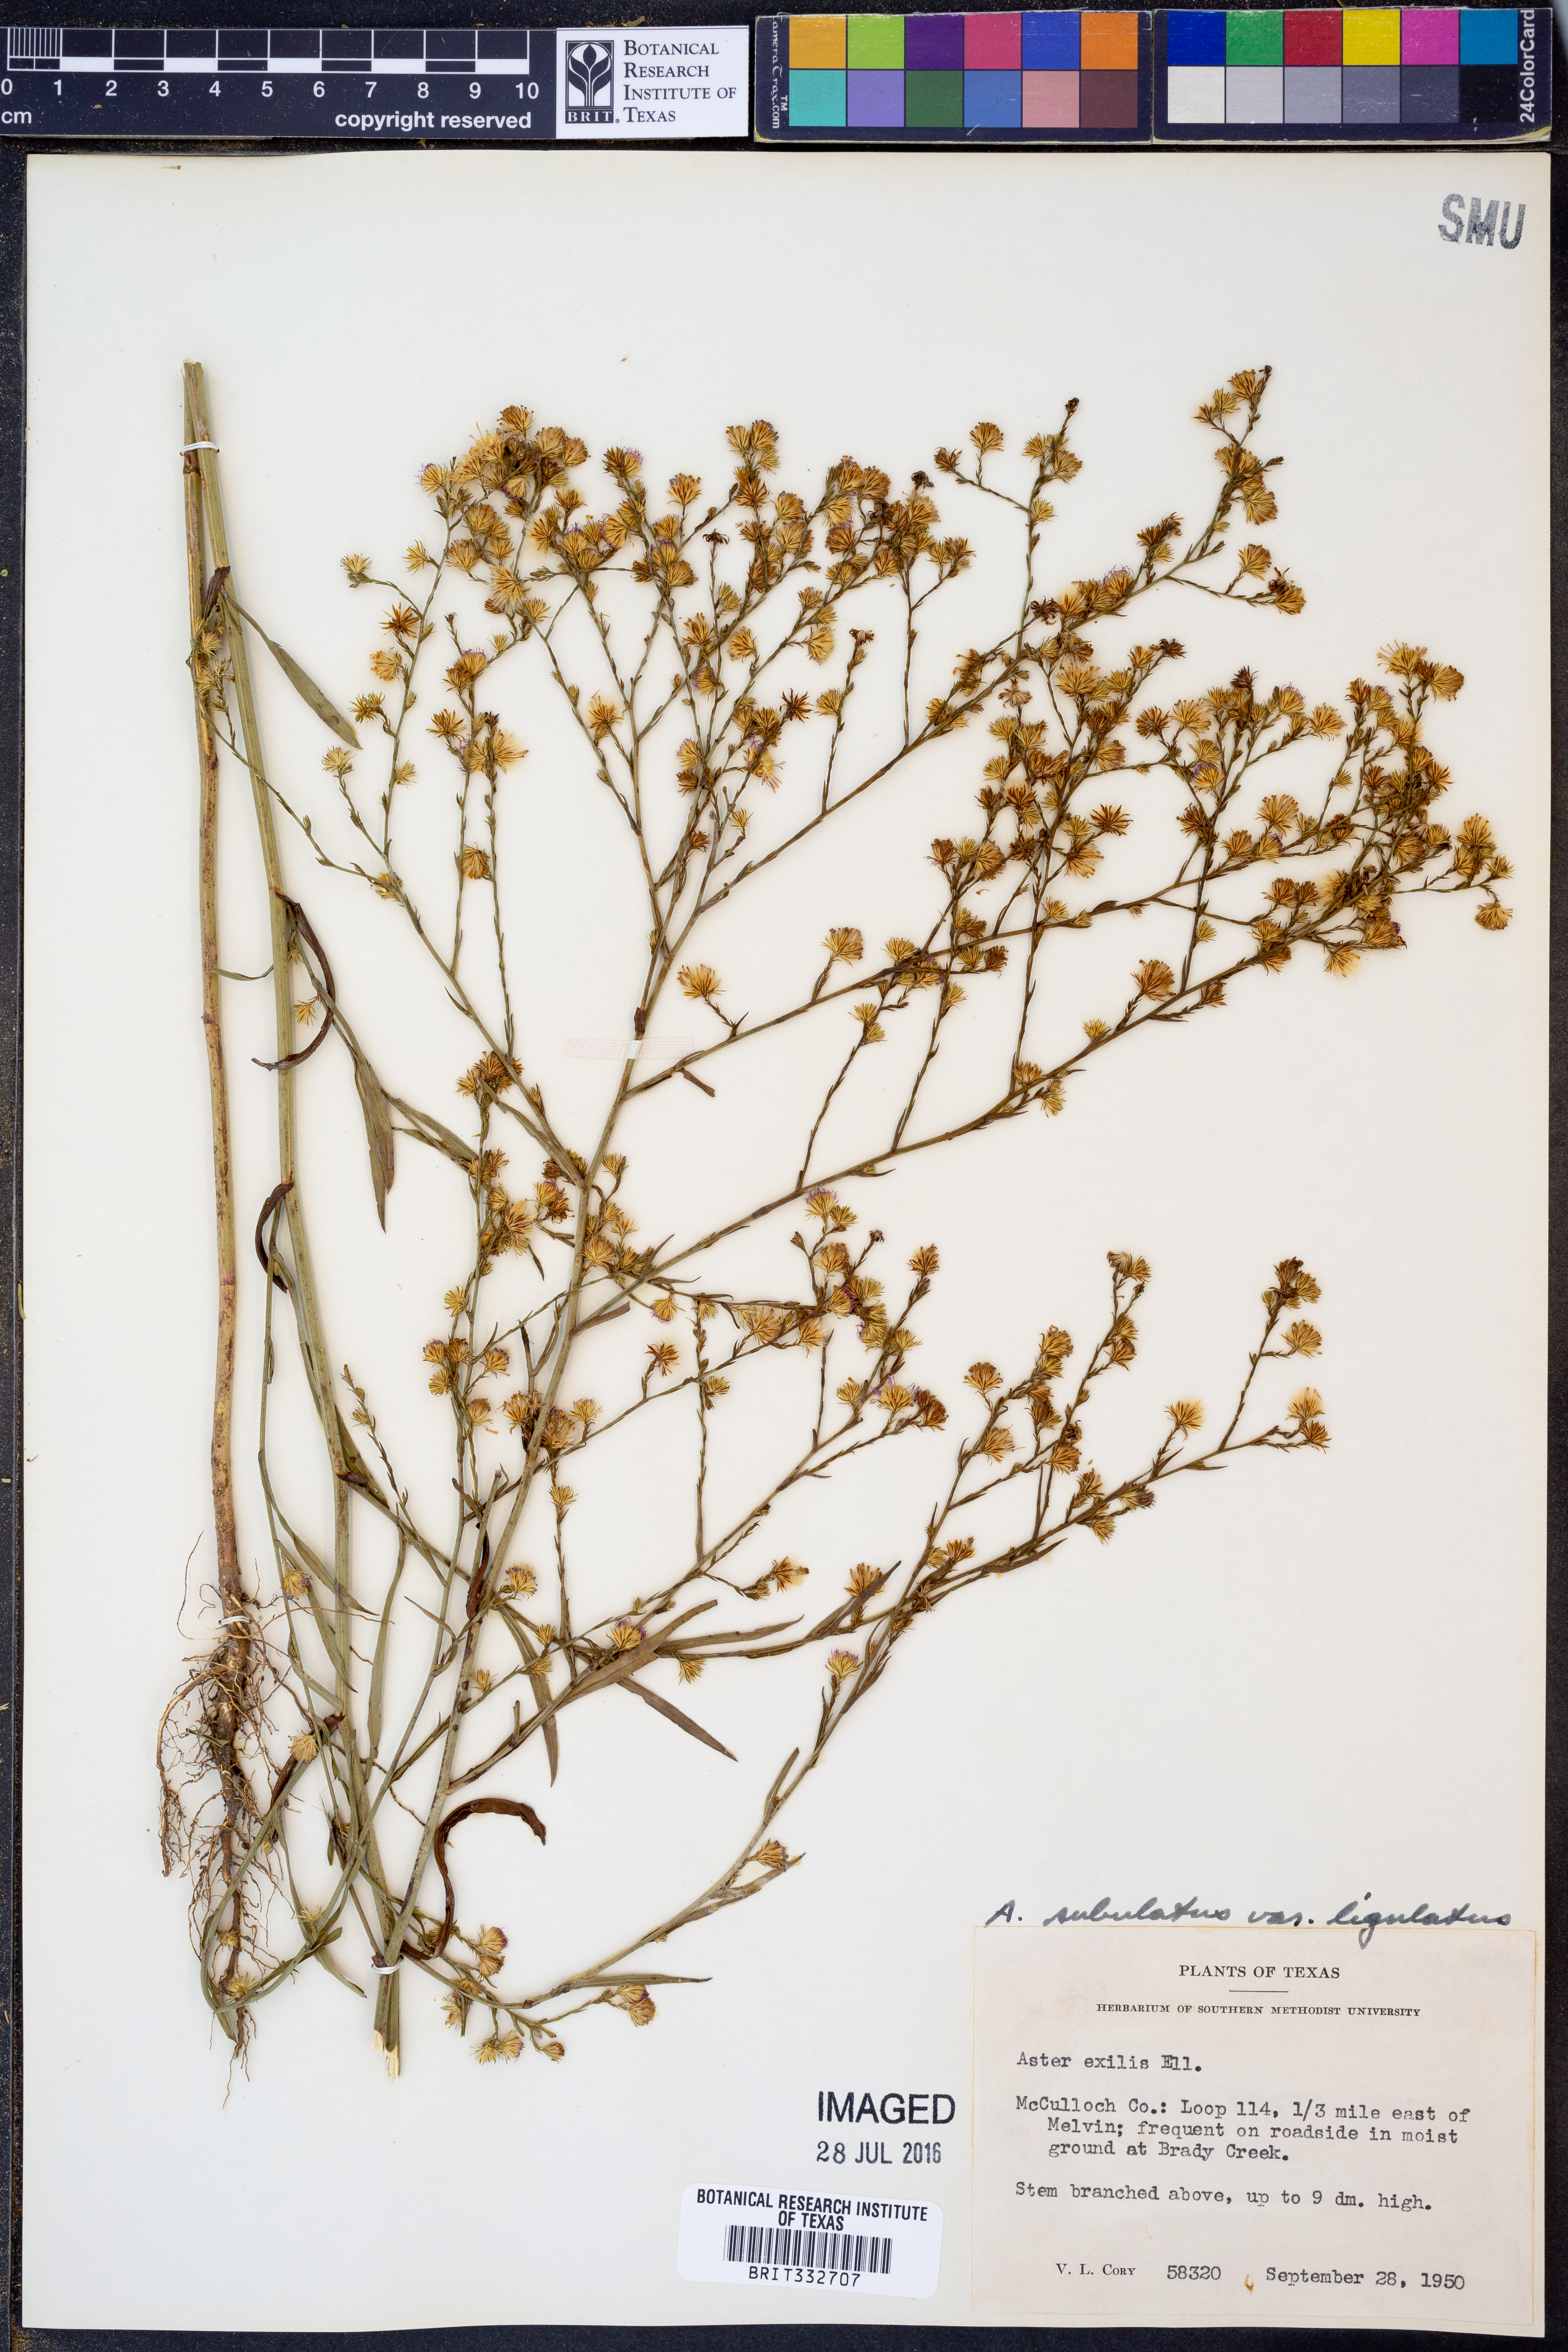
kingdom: Plantae
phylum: Tracheophyta
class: Magnoliopsida
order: Asterales
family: Asteraceae
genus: Symphyotrichum
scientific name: Symphyotrichum subulatum
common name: Annual saltmarsh aster
